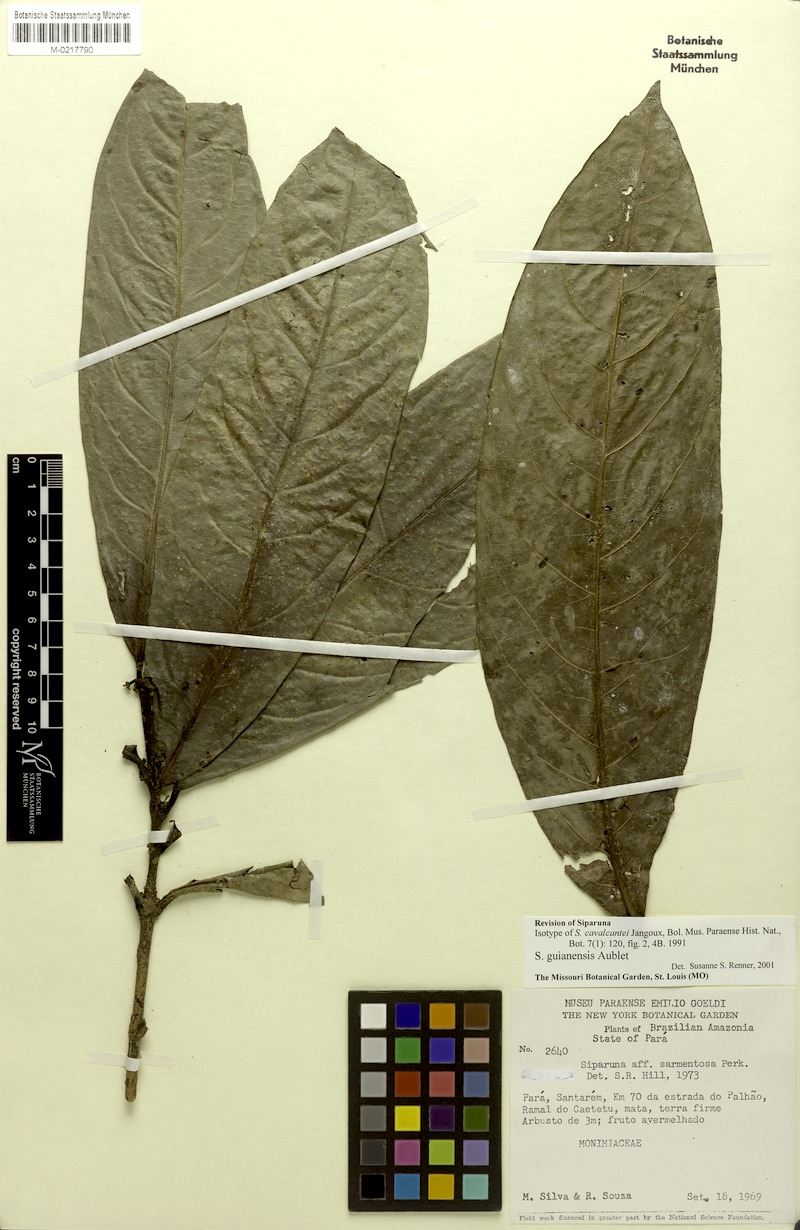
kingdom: Plantae
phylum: Tracheophyta
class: Magnoliopsida
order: Laurales
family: Siparunaceae
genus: Siparuna
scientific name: Siparuna guianensis
